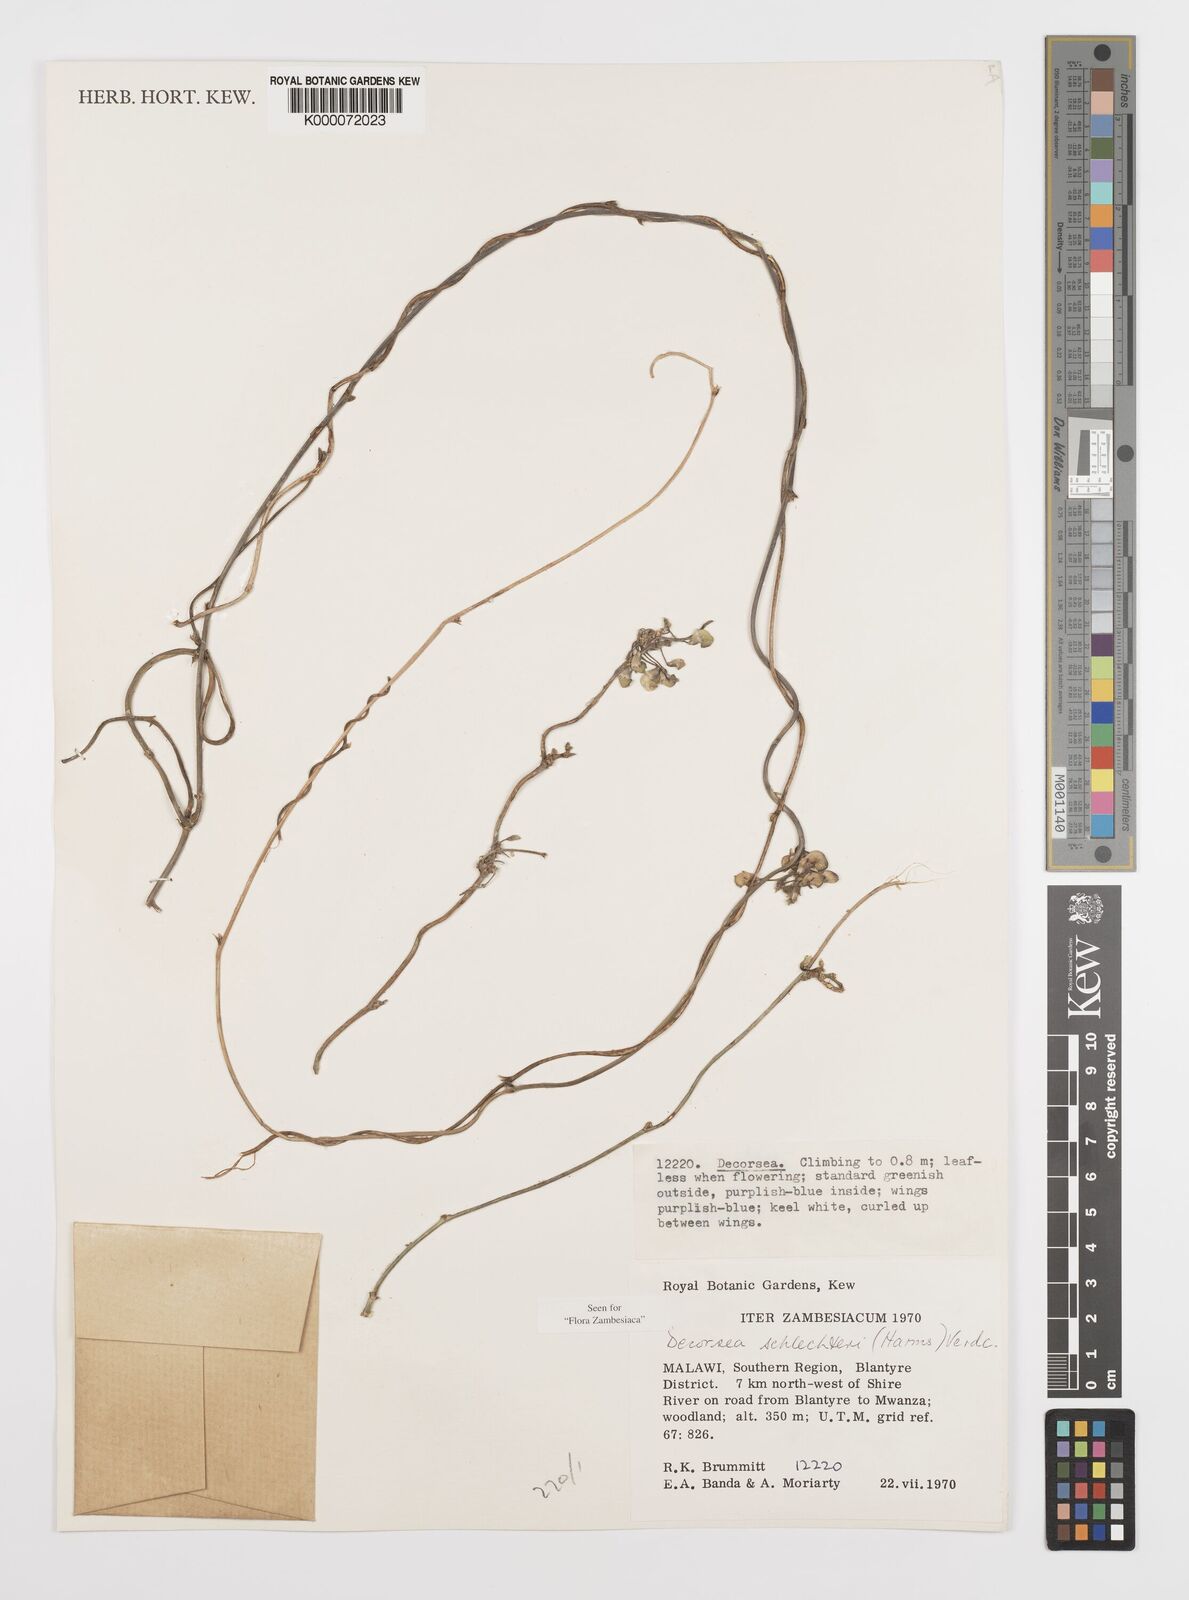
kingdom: Plantae
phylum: Tracheophyta
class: Magnoliopsida
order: Fabales
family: Fabaceae
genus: Decorsea
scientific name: Decorsea schlechteri
